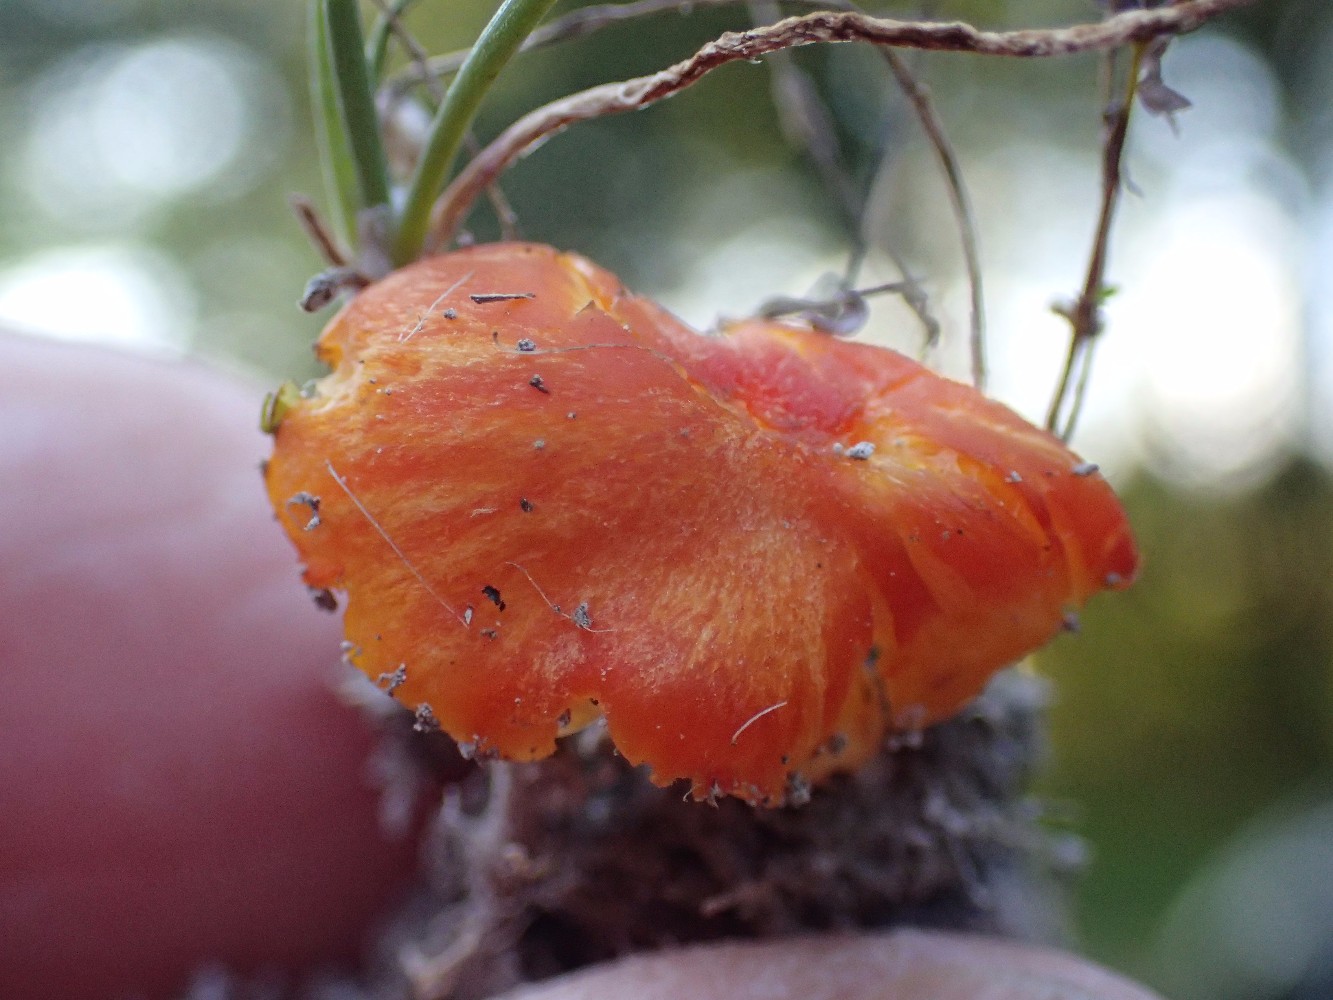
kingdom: Fungi
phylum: Basidiomycota
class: Agaricomycetes
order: Agaricales
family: Hygrophoraceae
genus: Hygrocybe
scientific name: Hygrocybe calciphila
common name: kalk-vokshat
